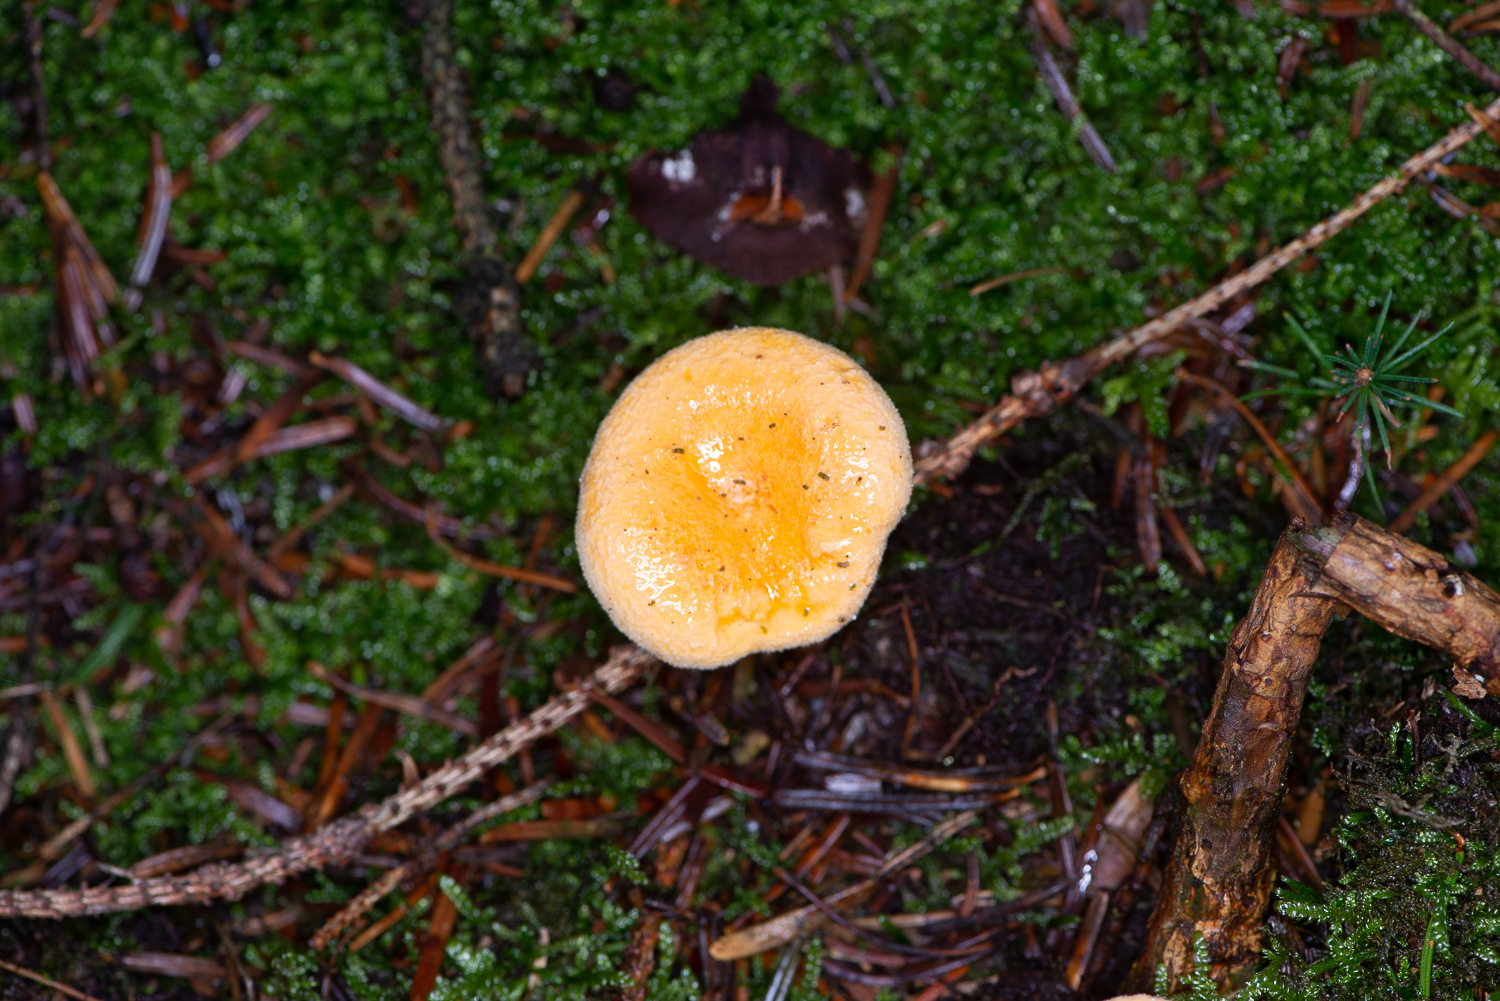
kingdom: Fungi
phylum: Basidiomycota
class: Agaricomycetes
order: Boletales
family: Hygrophoropsidaceae
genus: Hygrophoropsis
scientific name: Hygrophoropsis aurantiaca
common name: almindelig orangekantarel
